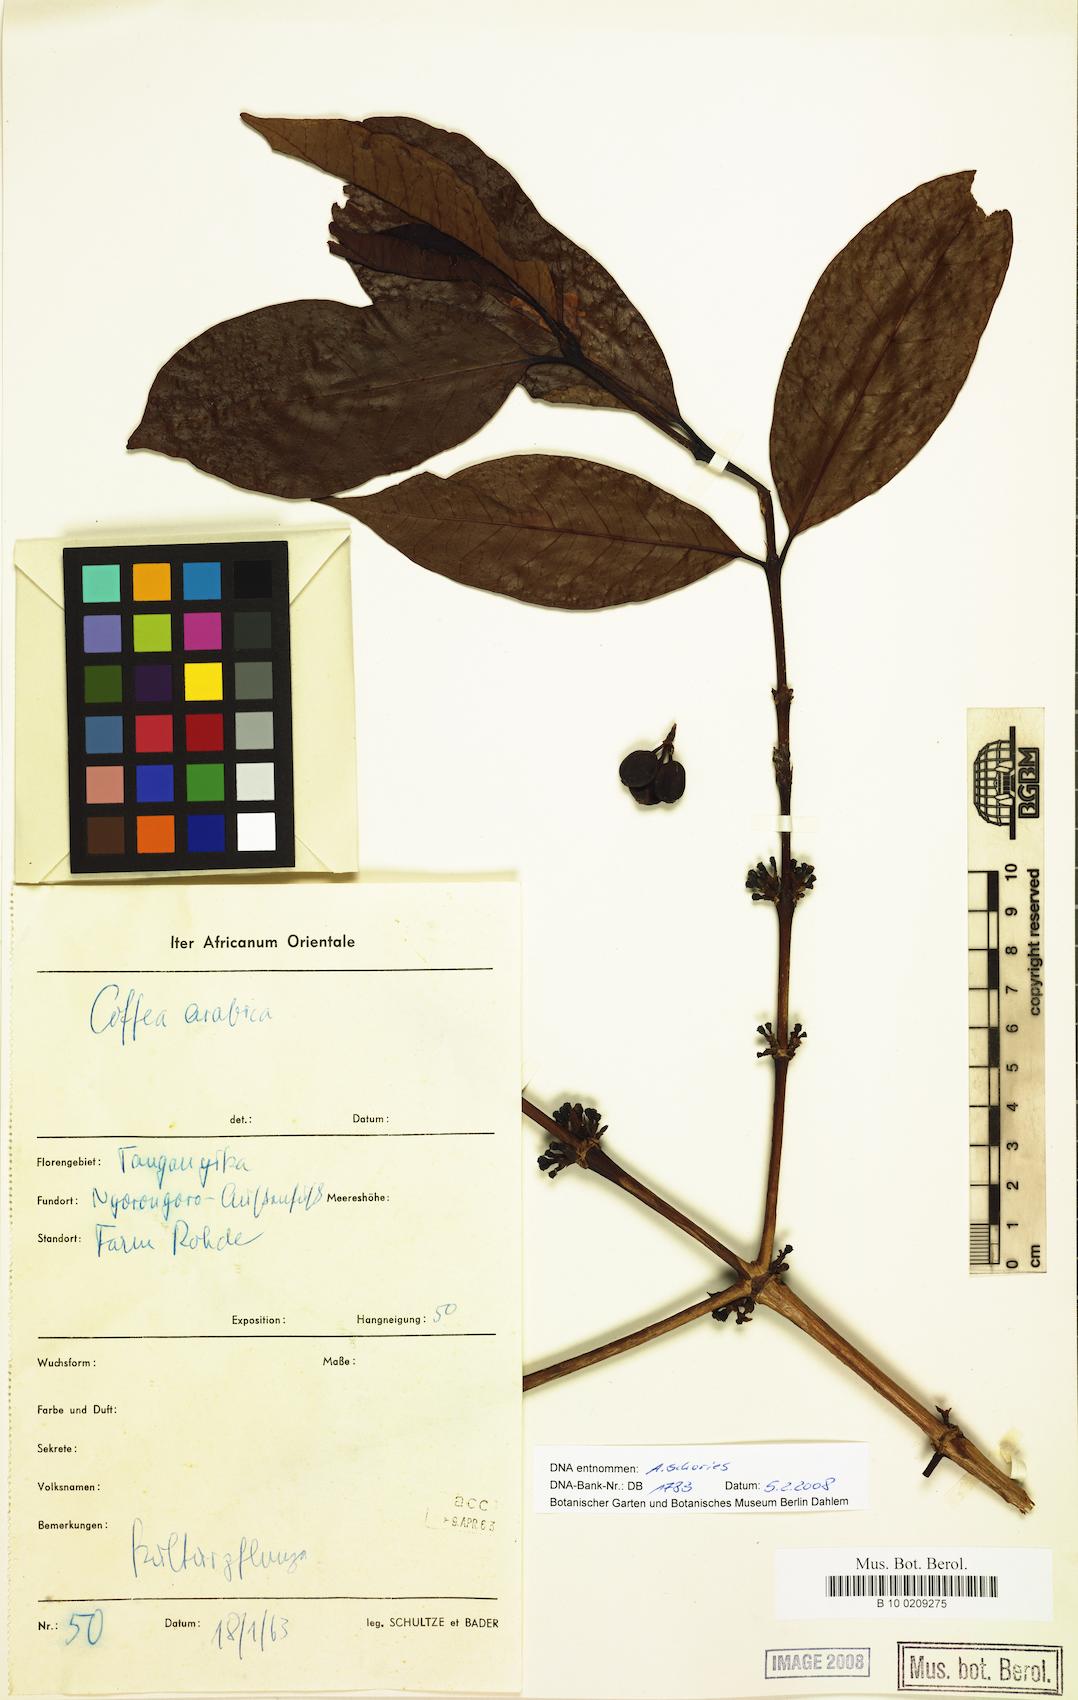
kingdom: Plantae
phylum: Tracheophyta
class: Magnoliopsida
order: Gentianales
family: Rubiaceae
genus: Coffea
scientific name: Coffea arabica
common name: Coffee
